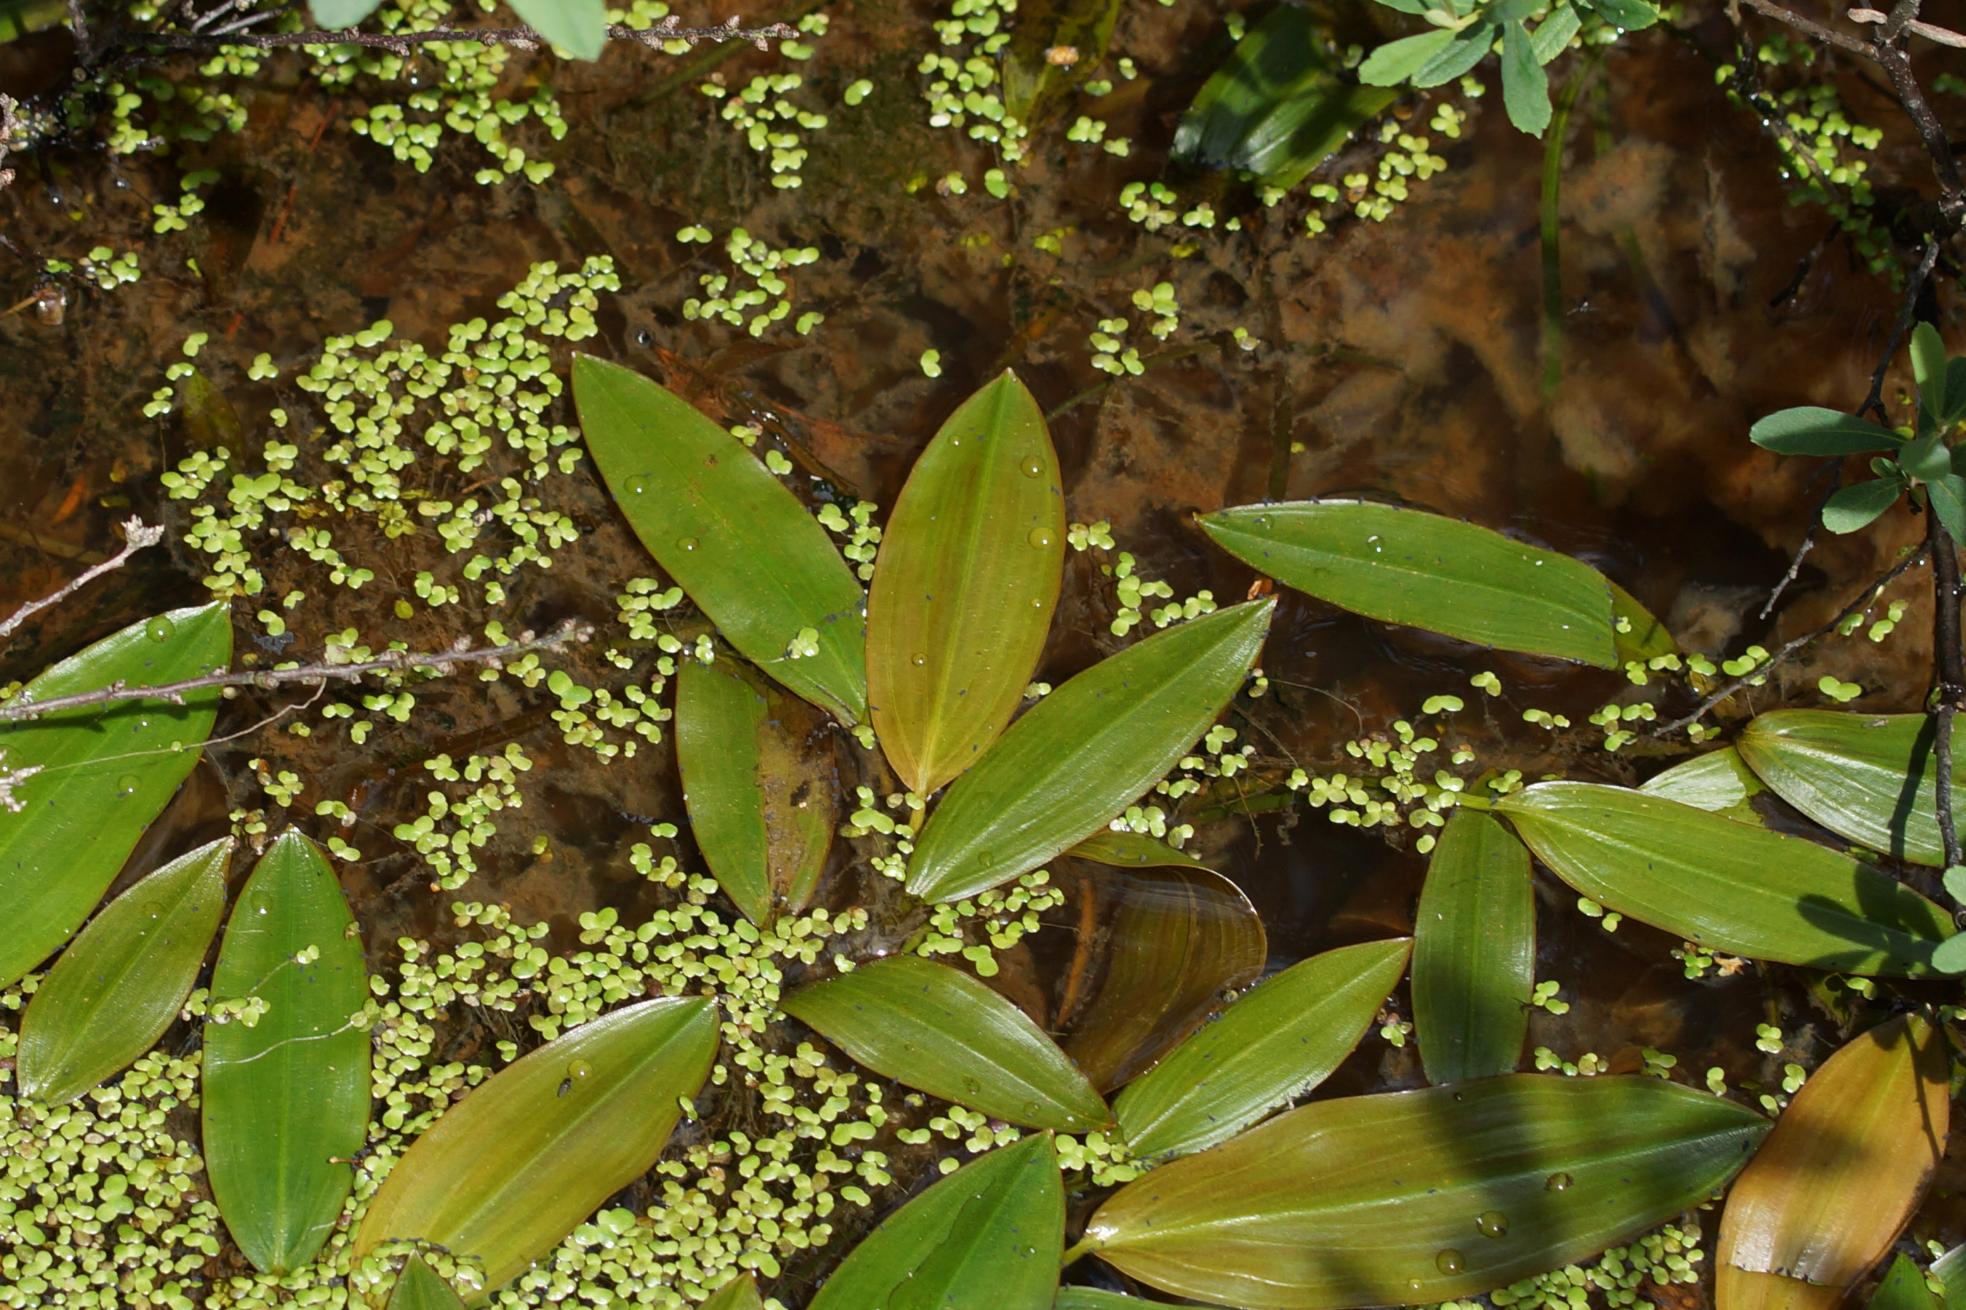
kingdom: Plantae
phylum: Tracheophyta
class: Liliopsida
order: Alismatales
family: Potamogetonaceae
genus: Potamogeton
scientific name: Potamogeton
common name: Vandaks (Potamogeton-slægten)
